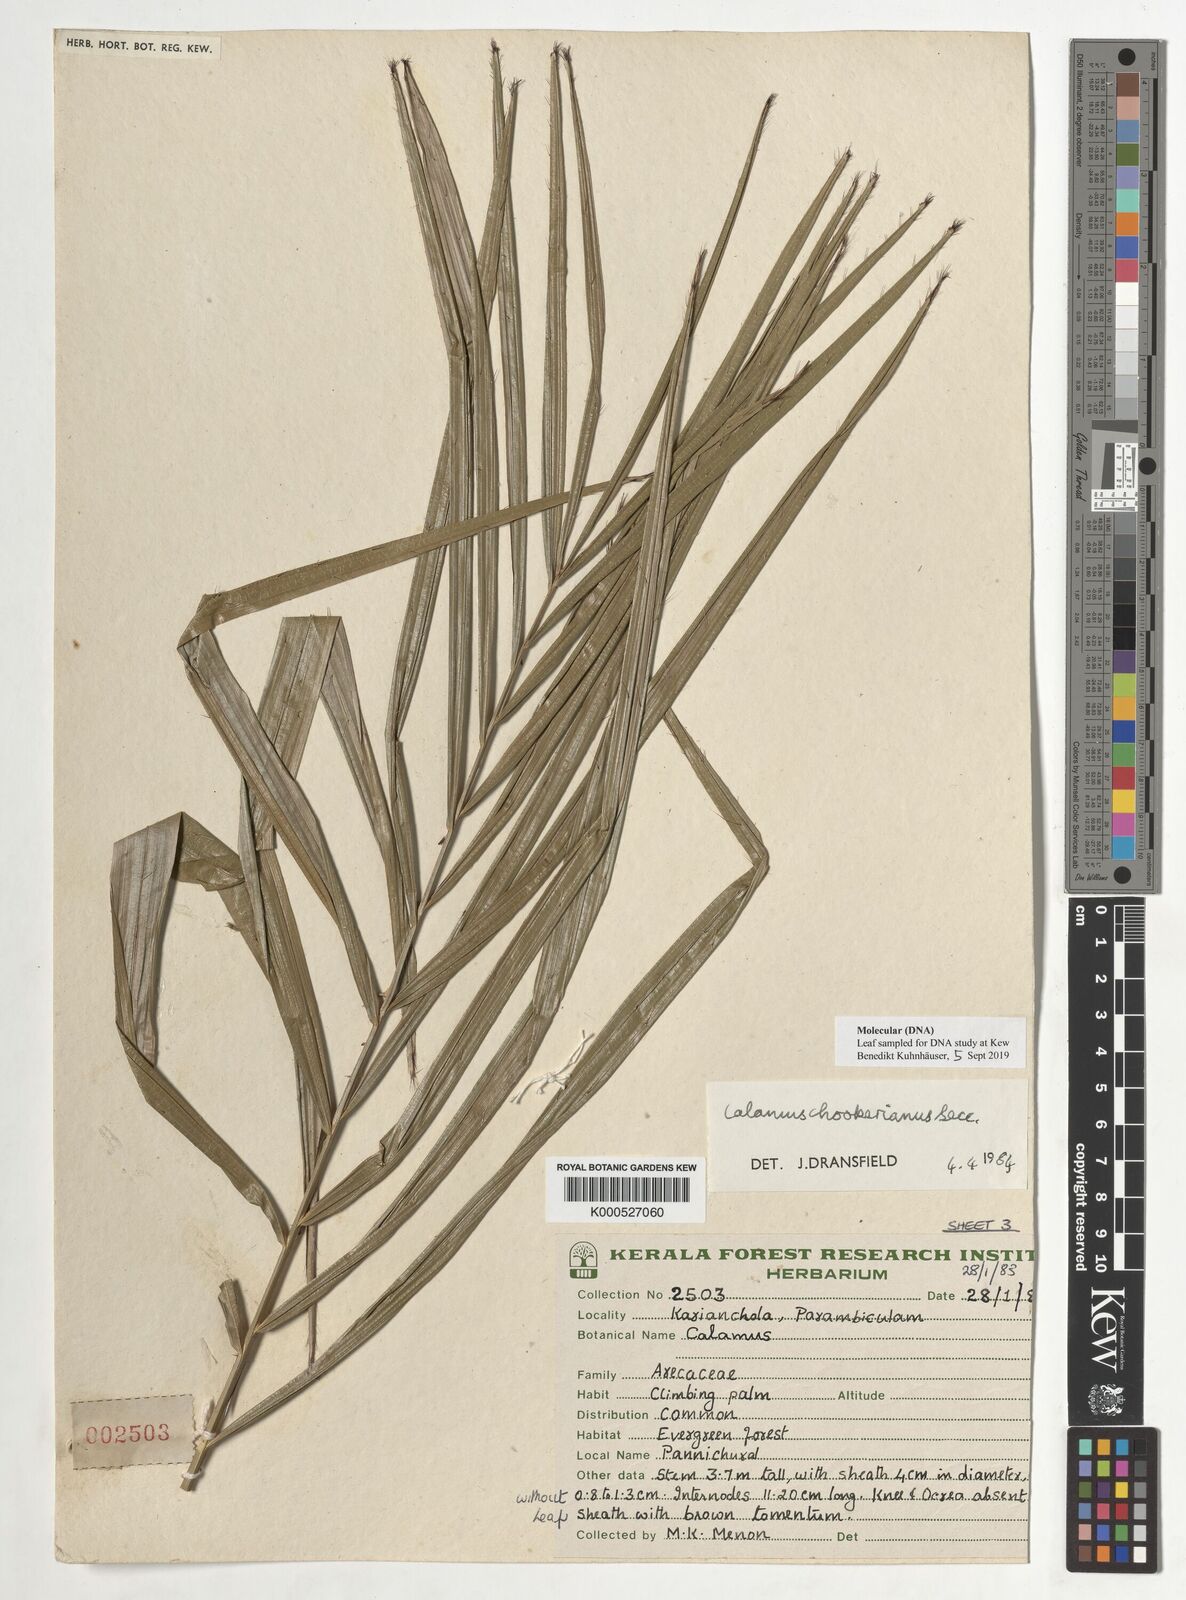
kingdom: Plantae
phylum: Tracheophyta
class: Liliopsida
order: Arecales
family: Arecaceae
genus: Calamus
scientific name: Calamus hookerianus
